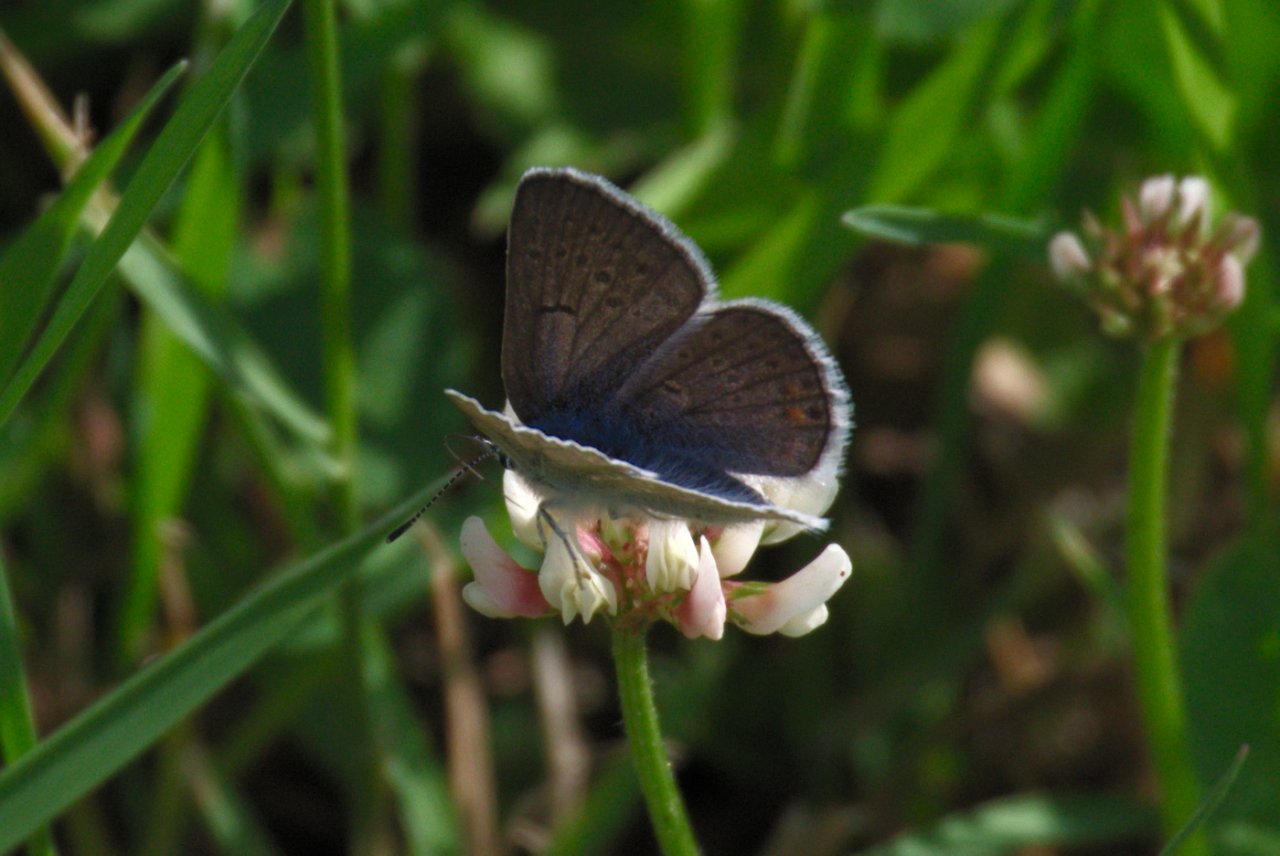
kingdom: Animalia
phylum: Arthropoda
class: Insecta
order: Lepidoptera
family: Lycaenidae
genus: Plebejus
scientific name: Plebejus saepiolus
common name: Greenish Blue
